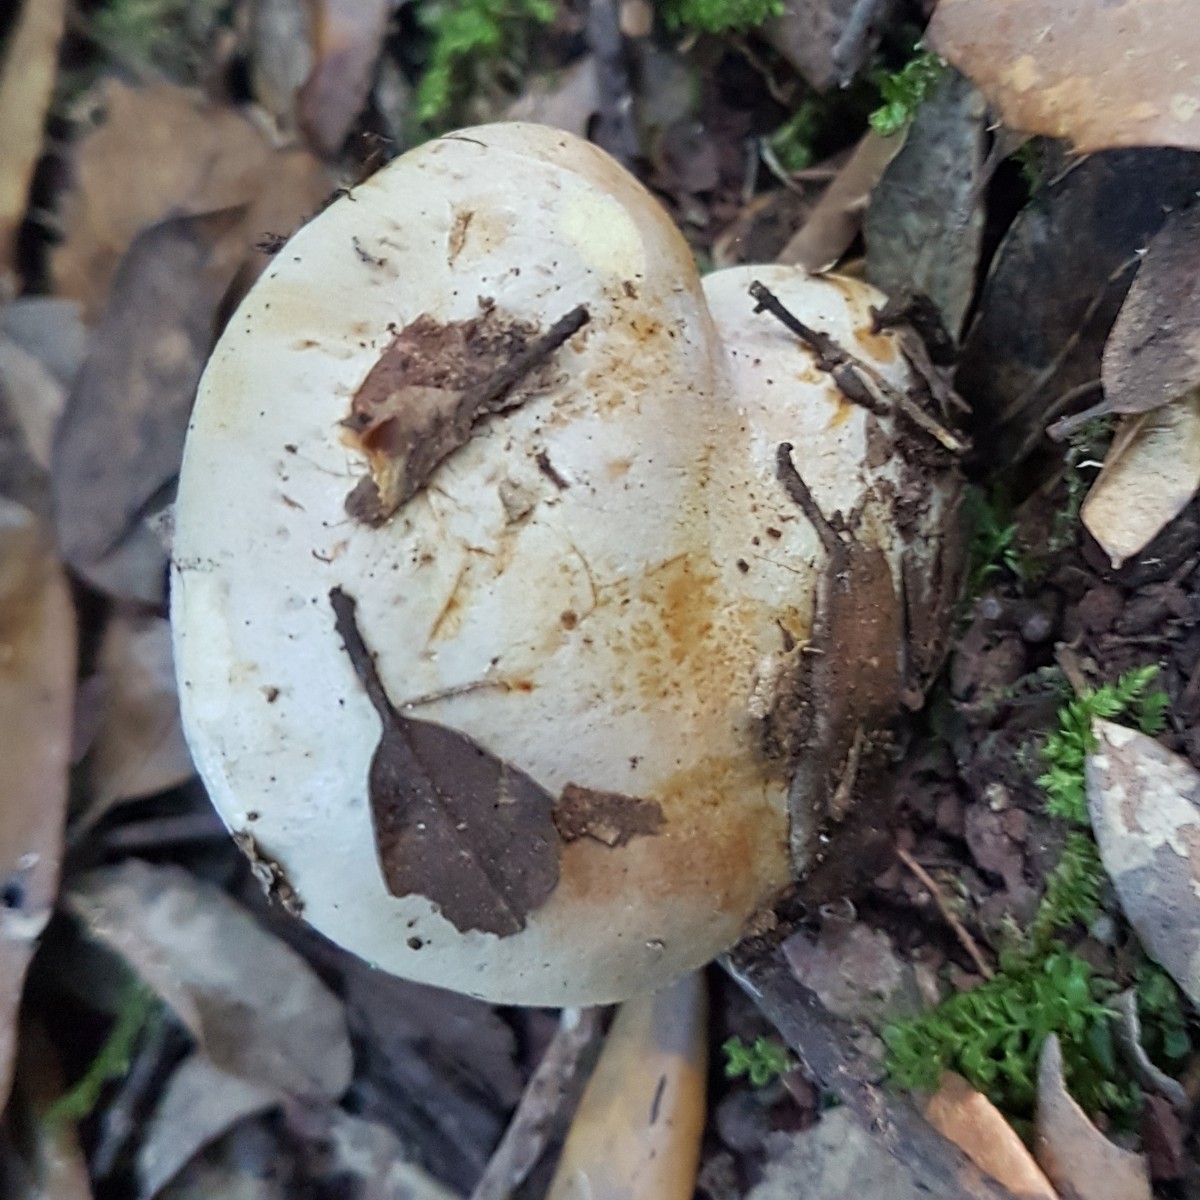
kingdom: Fungi
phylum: Basidiomycota
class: Agaricomycetes
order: Agaricales
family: Cortinariaceae
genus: Calonarius
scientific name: Calonarius sancti-felicis
